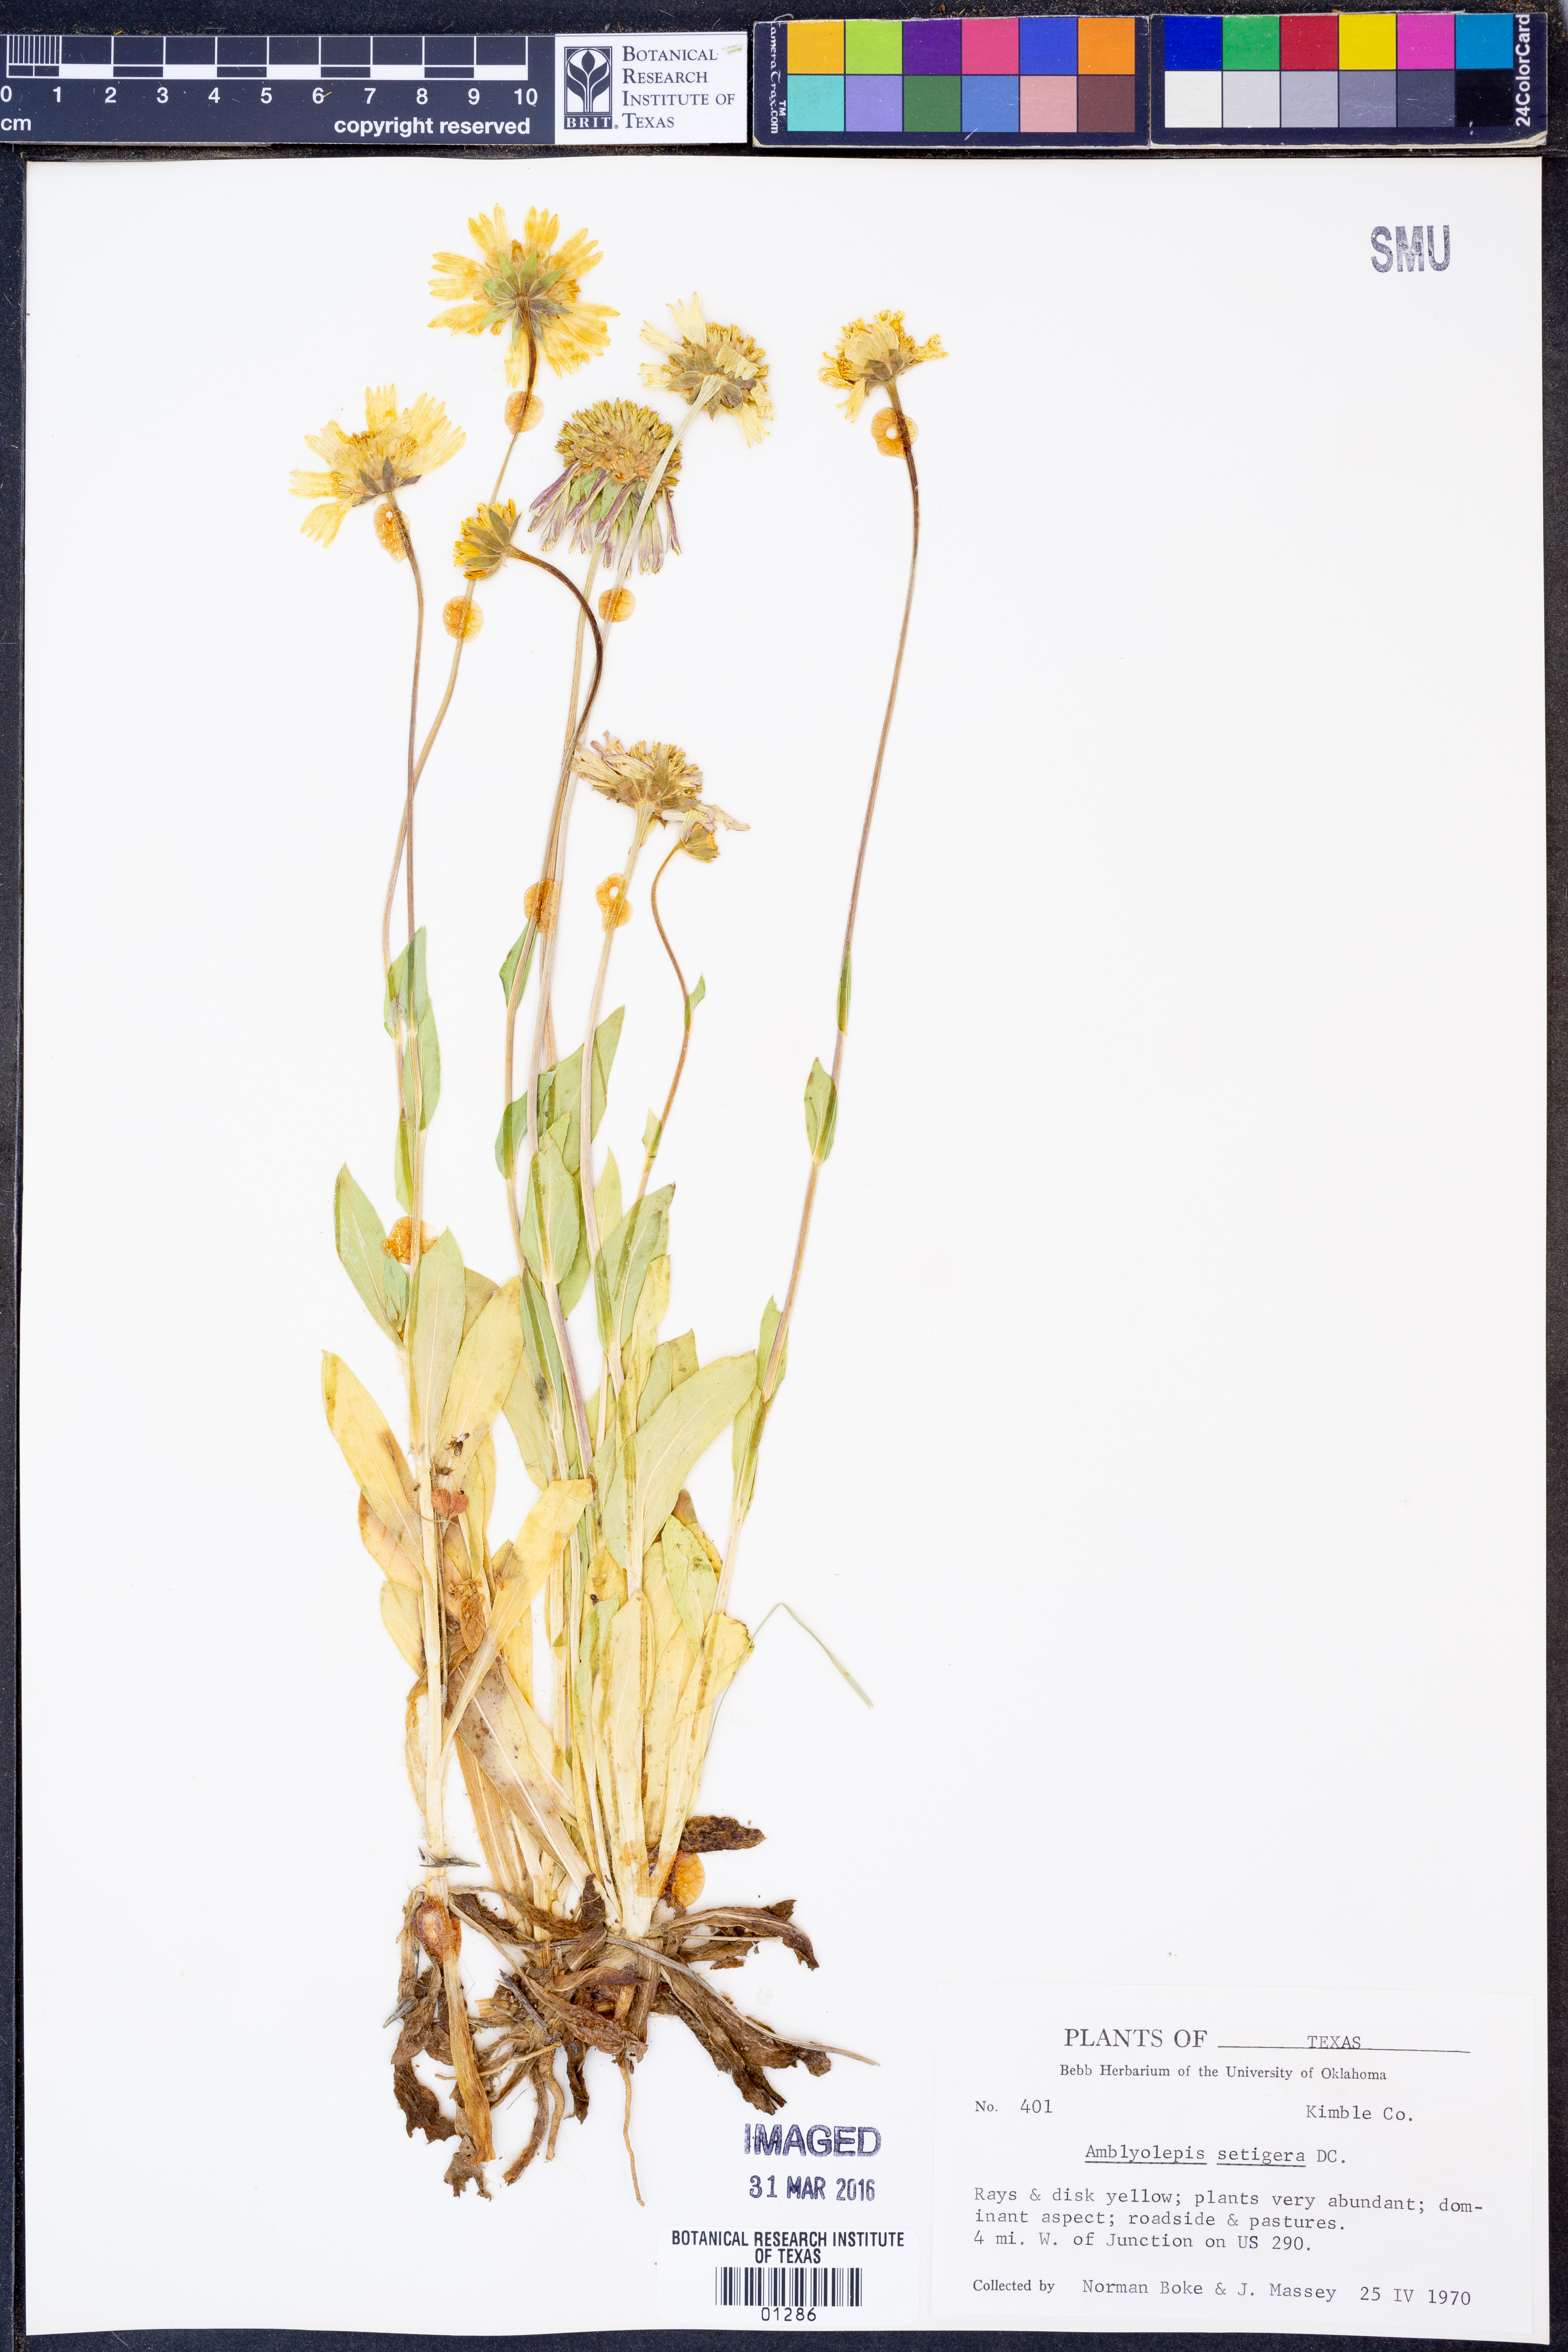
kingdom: Plantae
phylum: Tracheophyta
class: Magnoliopsida
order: Asterales
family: Asteraceae
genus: Amblyolepis
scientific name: Amblyolepis setigera
